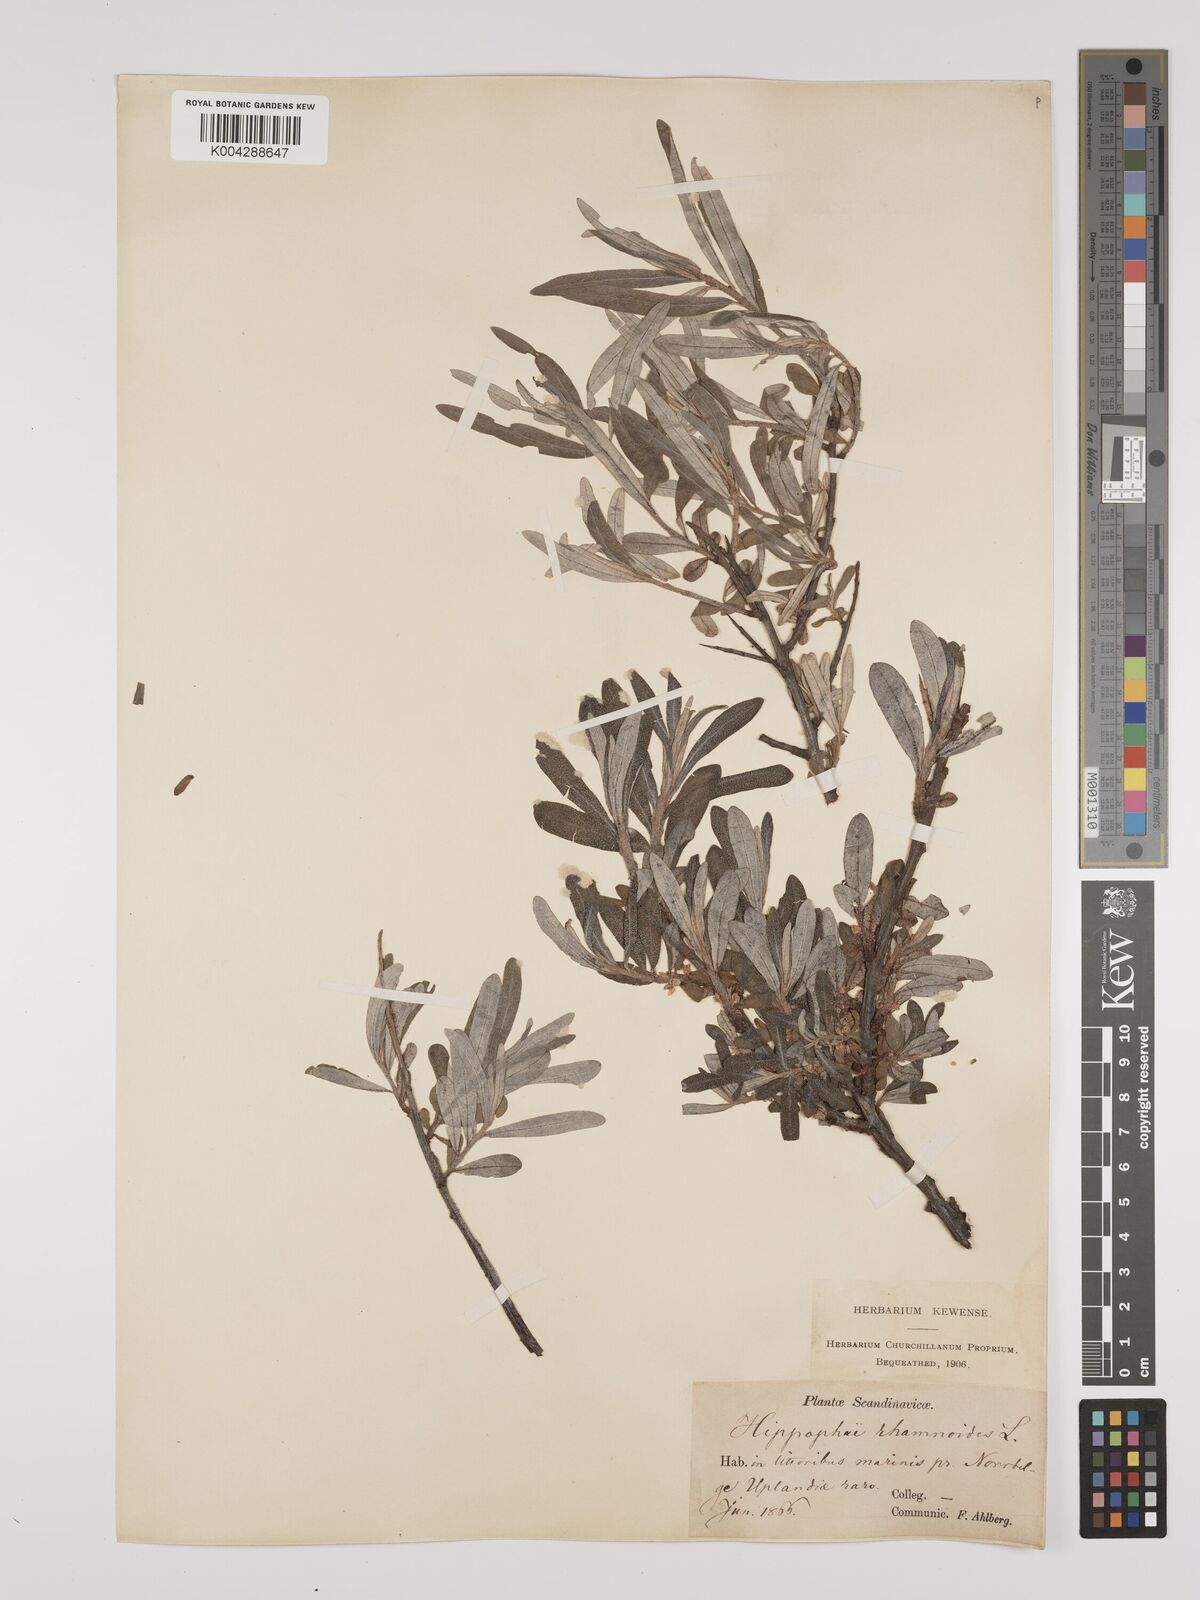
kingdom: Plantae
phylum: Tracheophyta
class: Magnoliopsida
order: Rosales
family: Elaeagnaceae
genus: Hippophae
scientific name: Hippophae rhamnoides
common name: Sea-buckthorn
